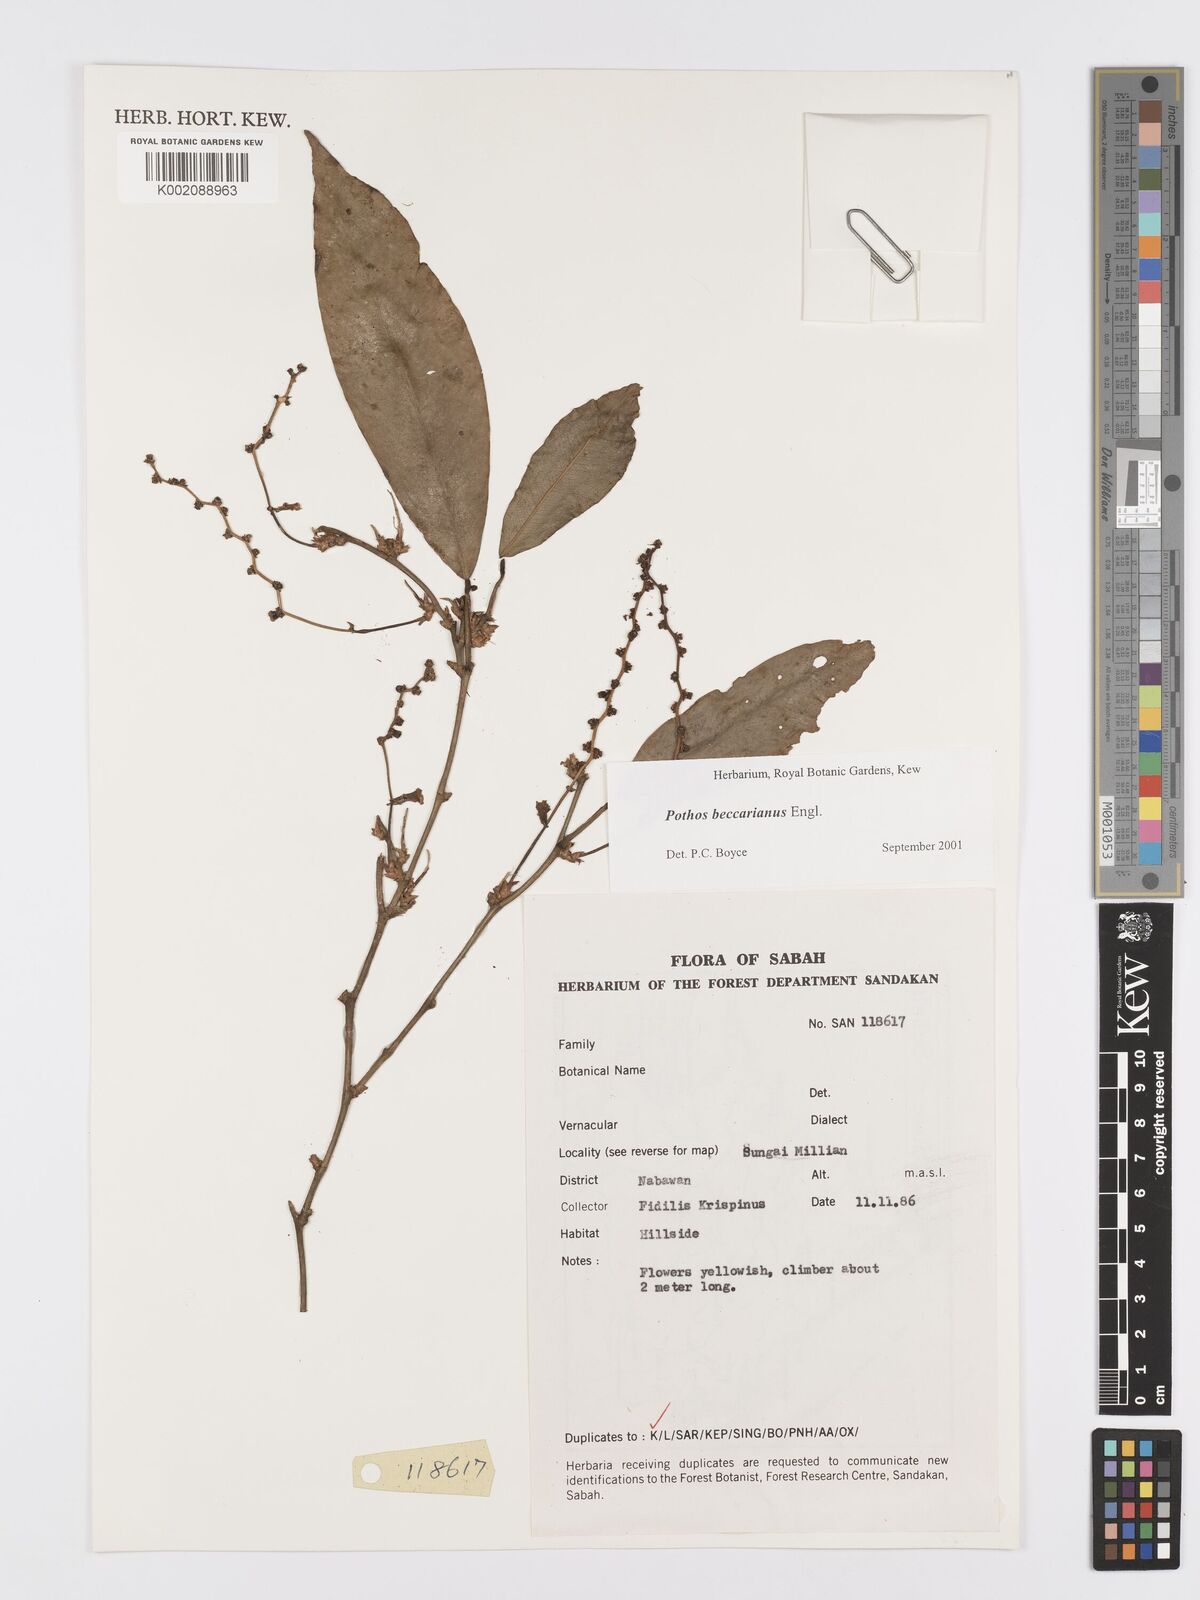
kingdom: Plantae
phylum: Tracheophyta
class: Liliopsida
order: Alismatales
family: Araceae
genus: Pothos
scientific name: Pothos beccarianus
